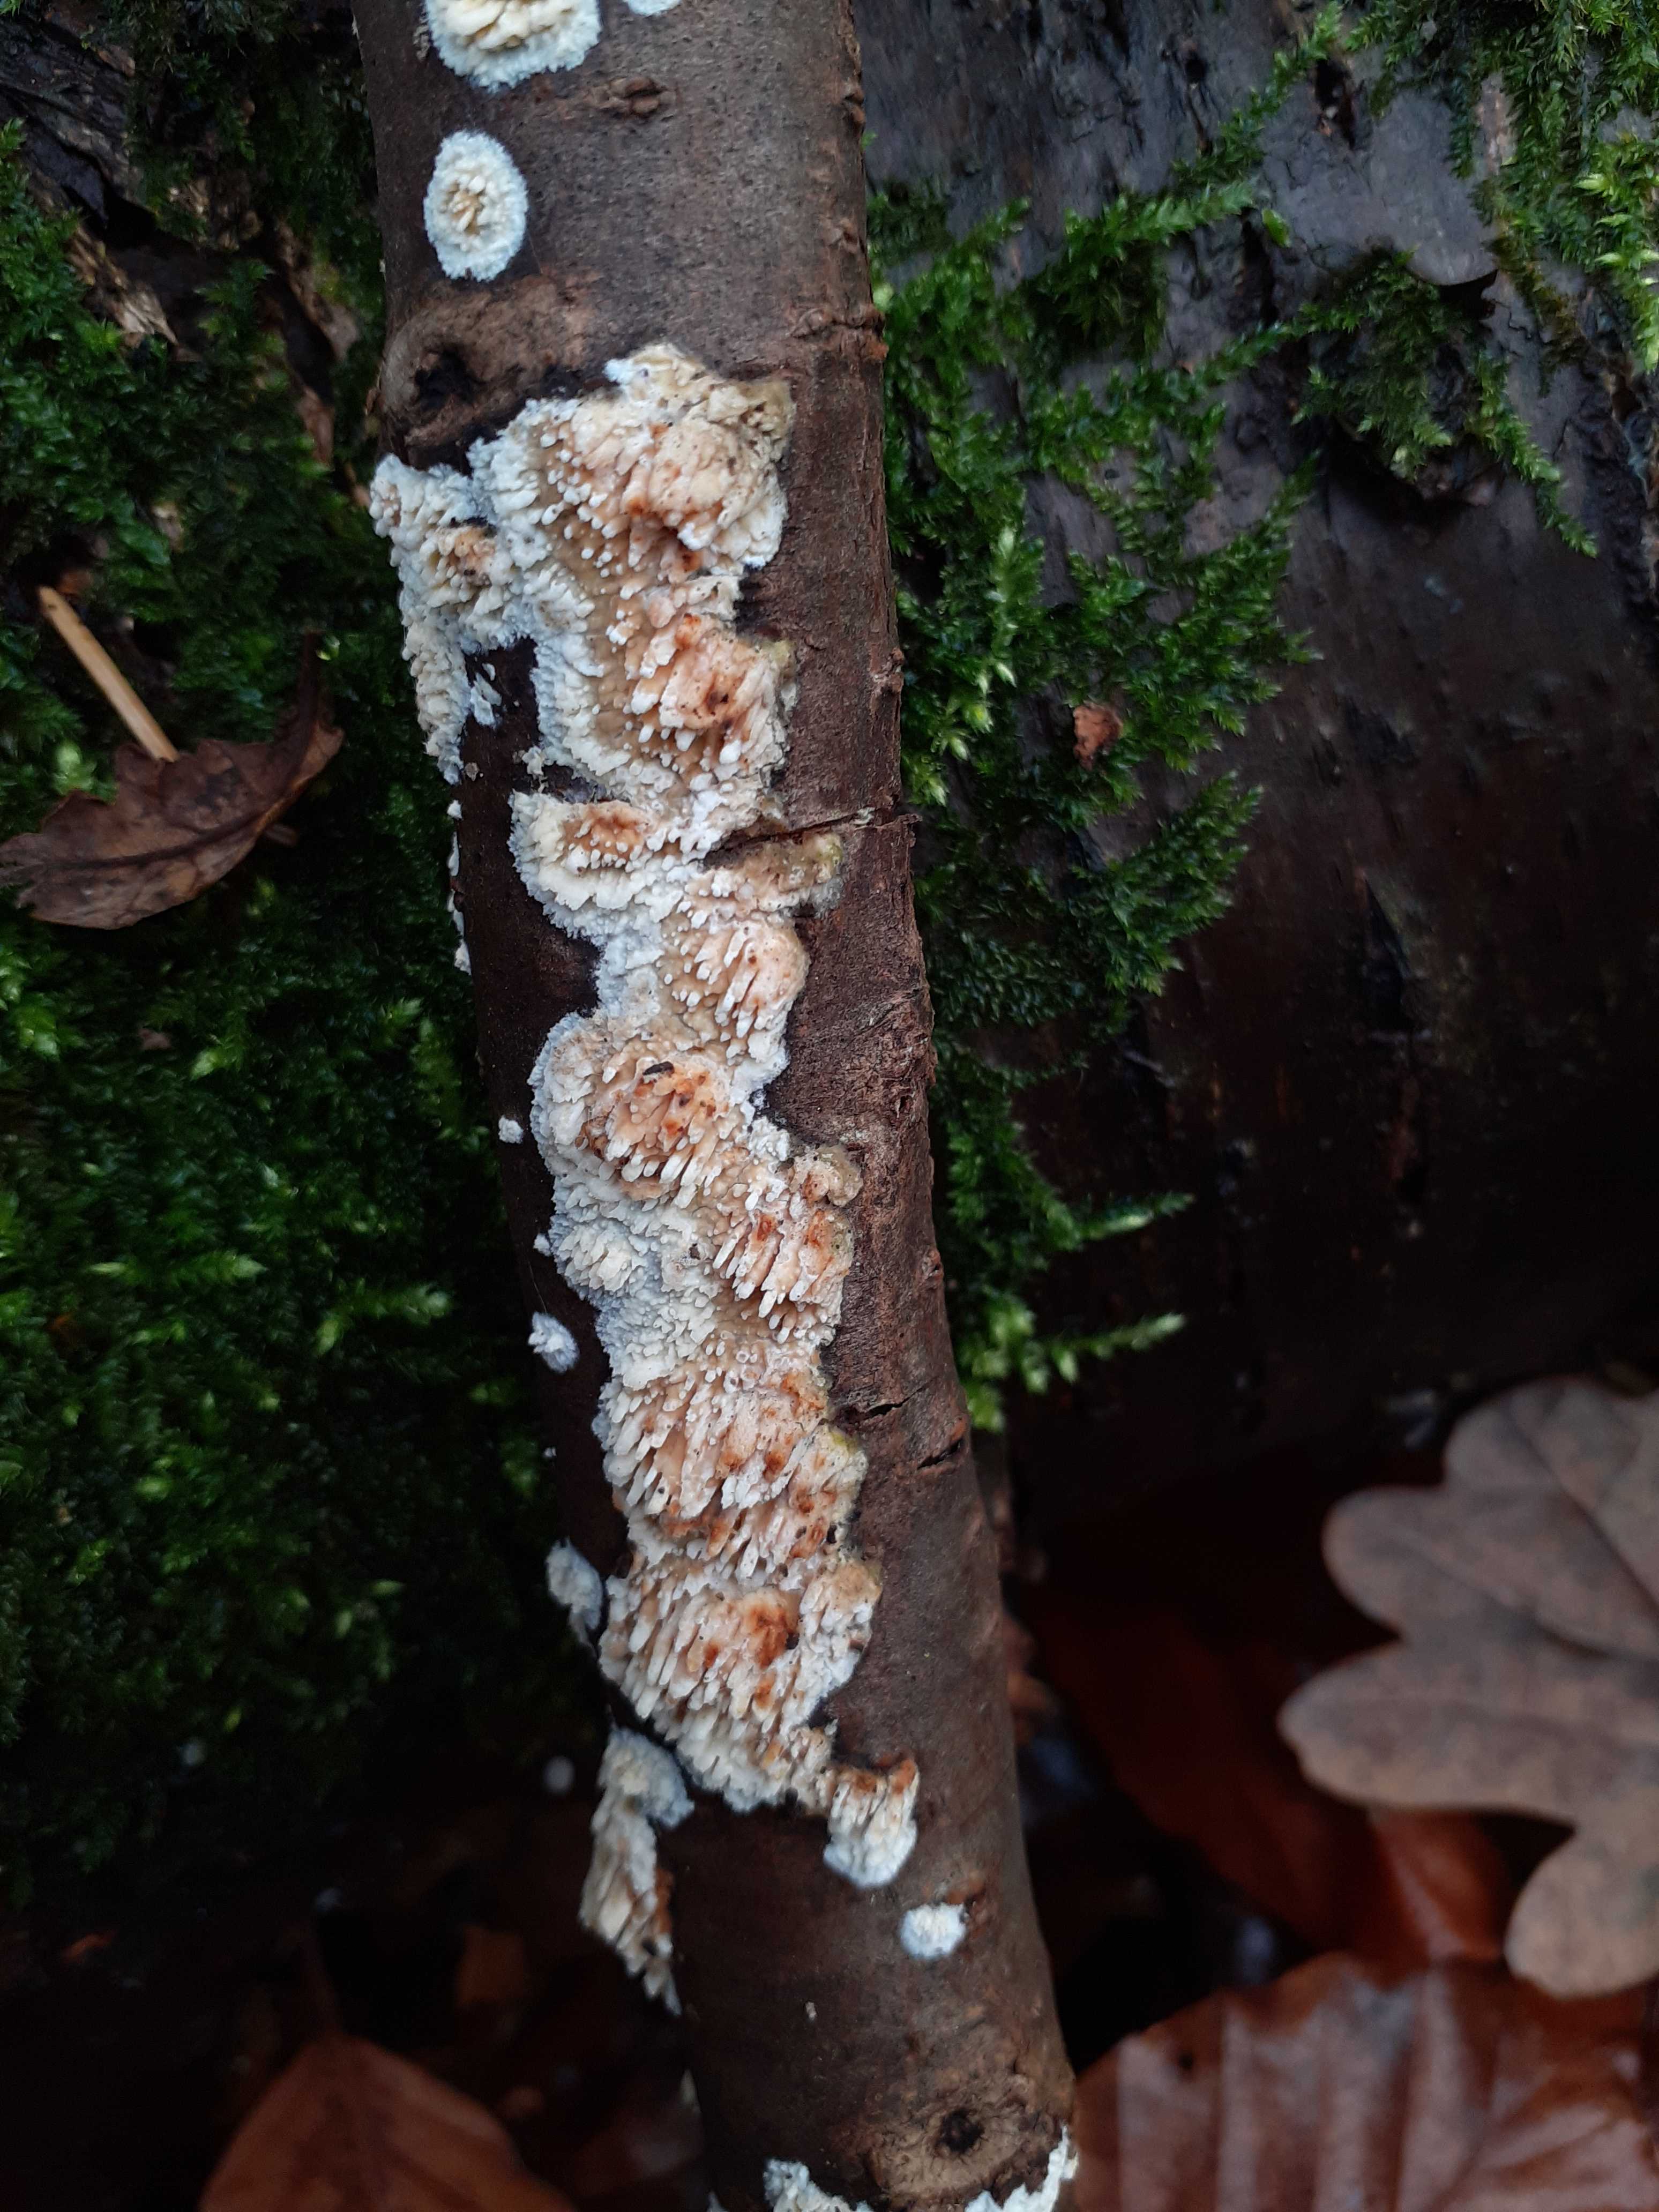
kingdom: Fungi
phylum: Basidiomycota
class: Agaricomycetes
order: Hymenochaetales
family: Schizoporaceae
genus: Xylodon
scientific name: Xylodon radula
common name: grovtandet kalkskind
